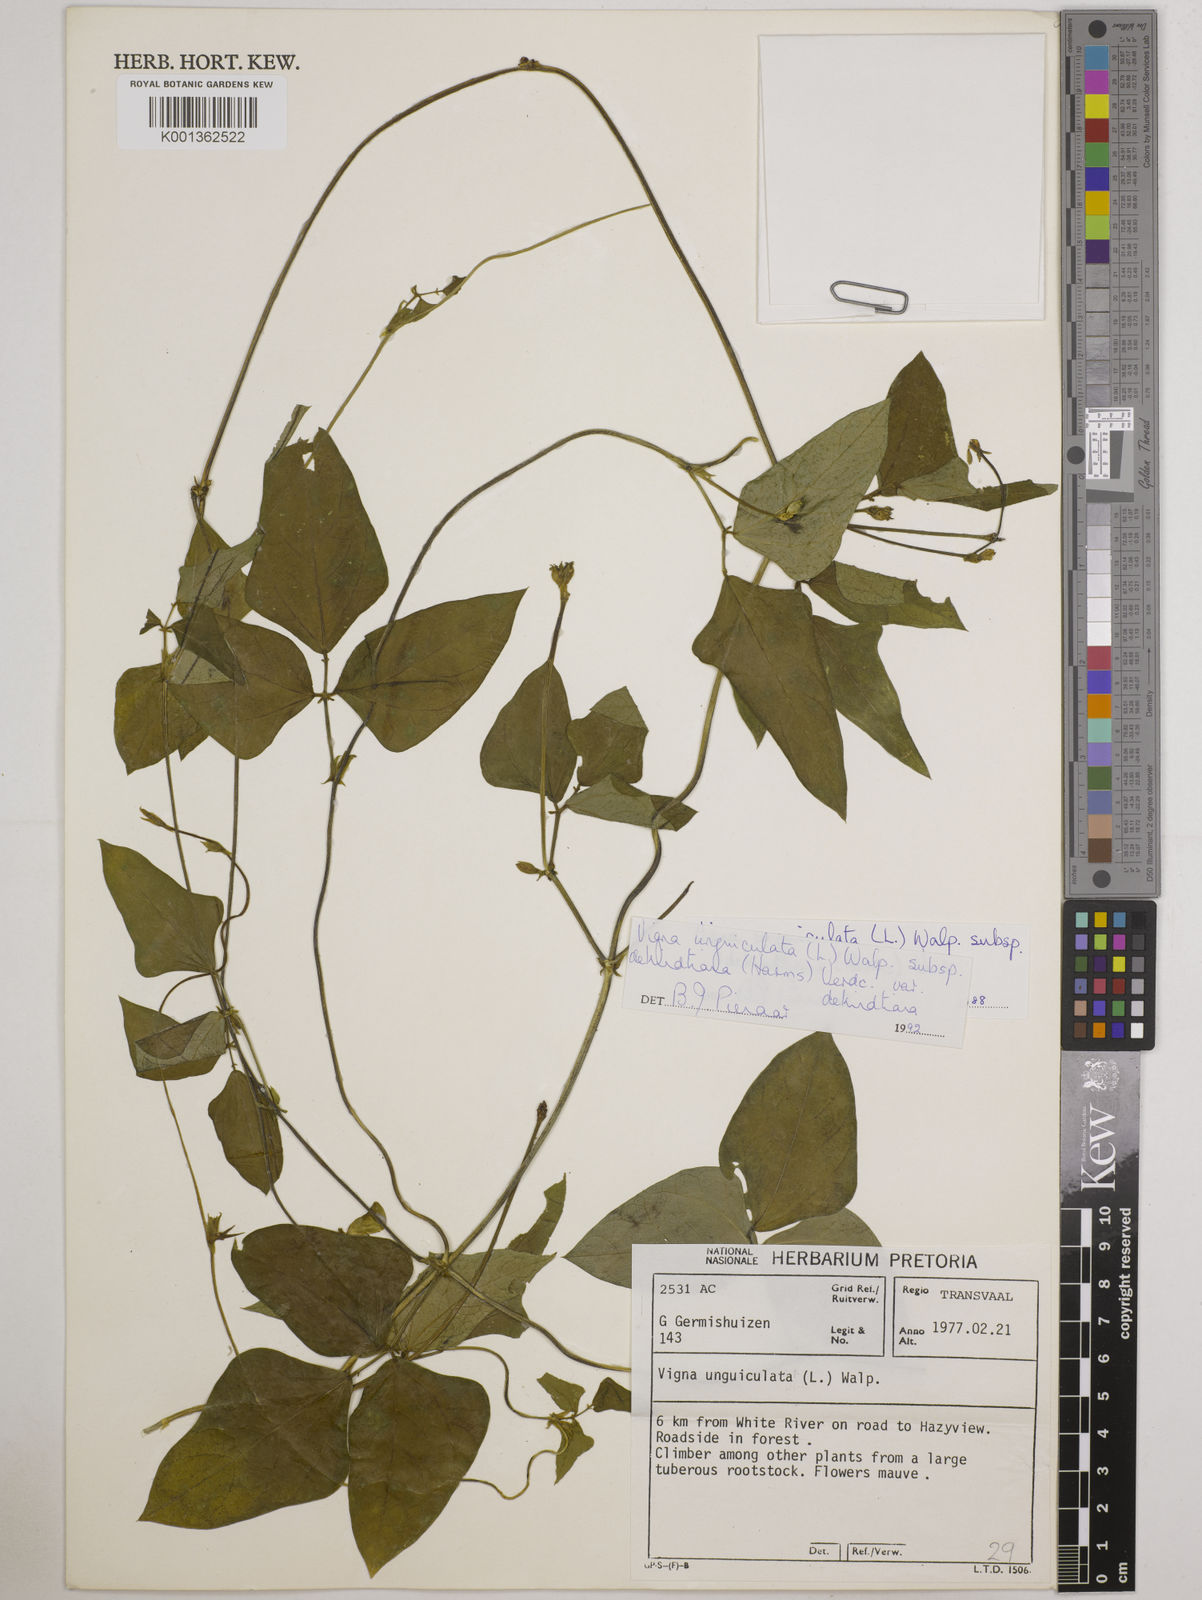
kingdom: Plantae
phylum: Tracheophyta
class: Magnoliopsida
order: Fabales
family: Fabaceae
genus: Vigna
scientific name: Vigna unguiculata
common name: Cowpea
